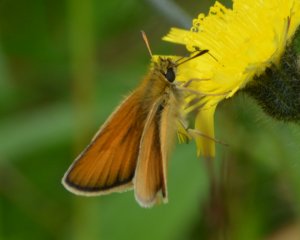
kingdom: Animalia
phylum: Arthropoda
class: Insecta
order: Lepidoptera
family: Hesperiidae
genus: Thymelicus
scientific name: Thymelicus lineola
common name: European Skipper
